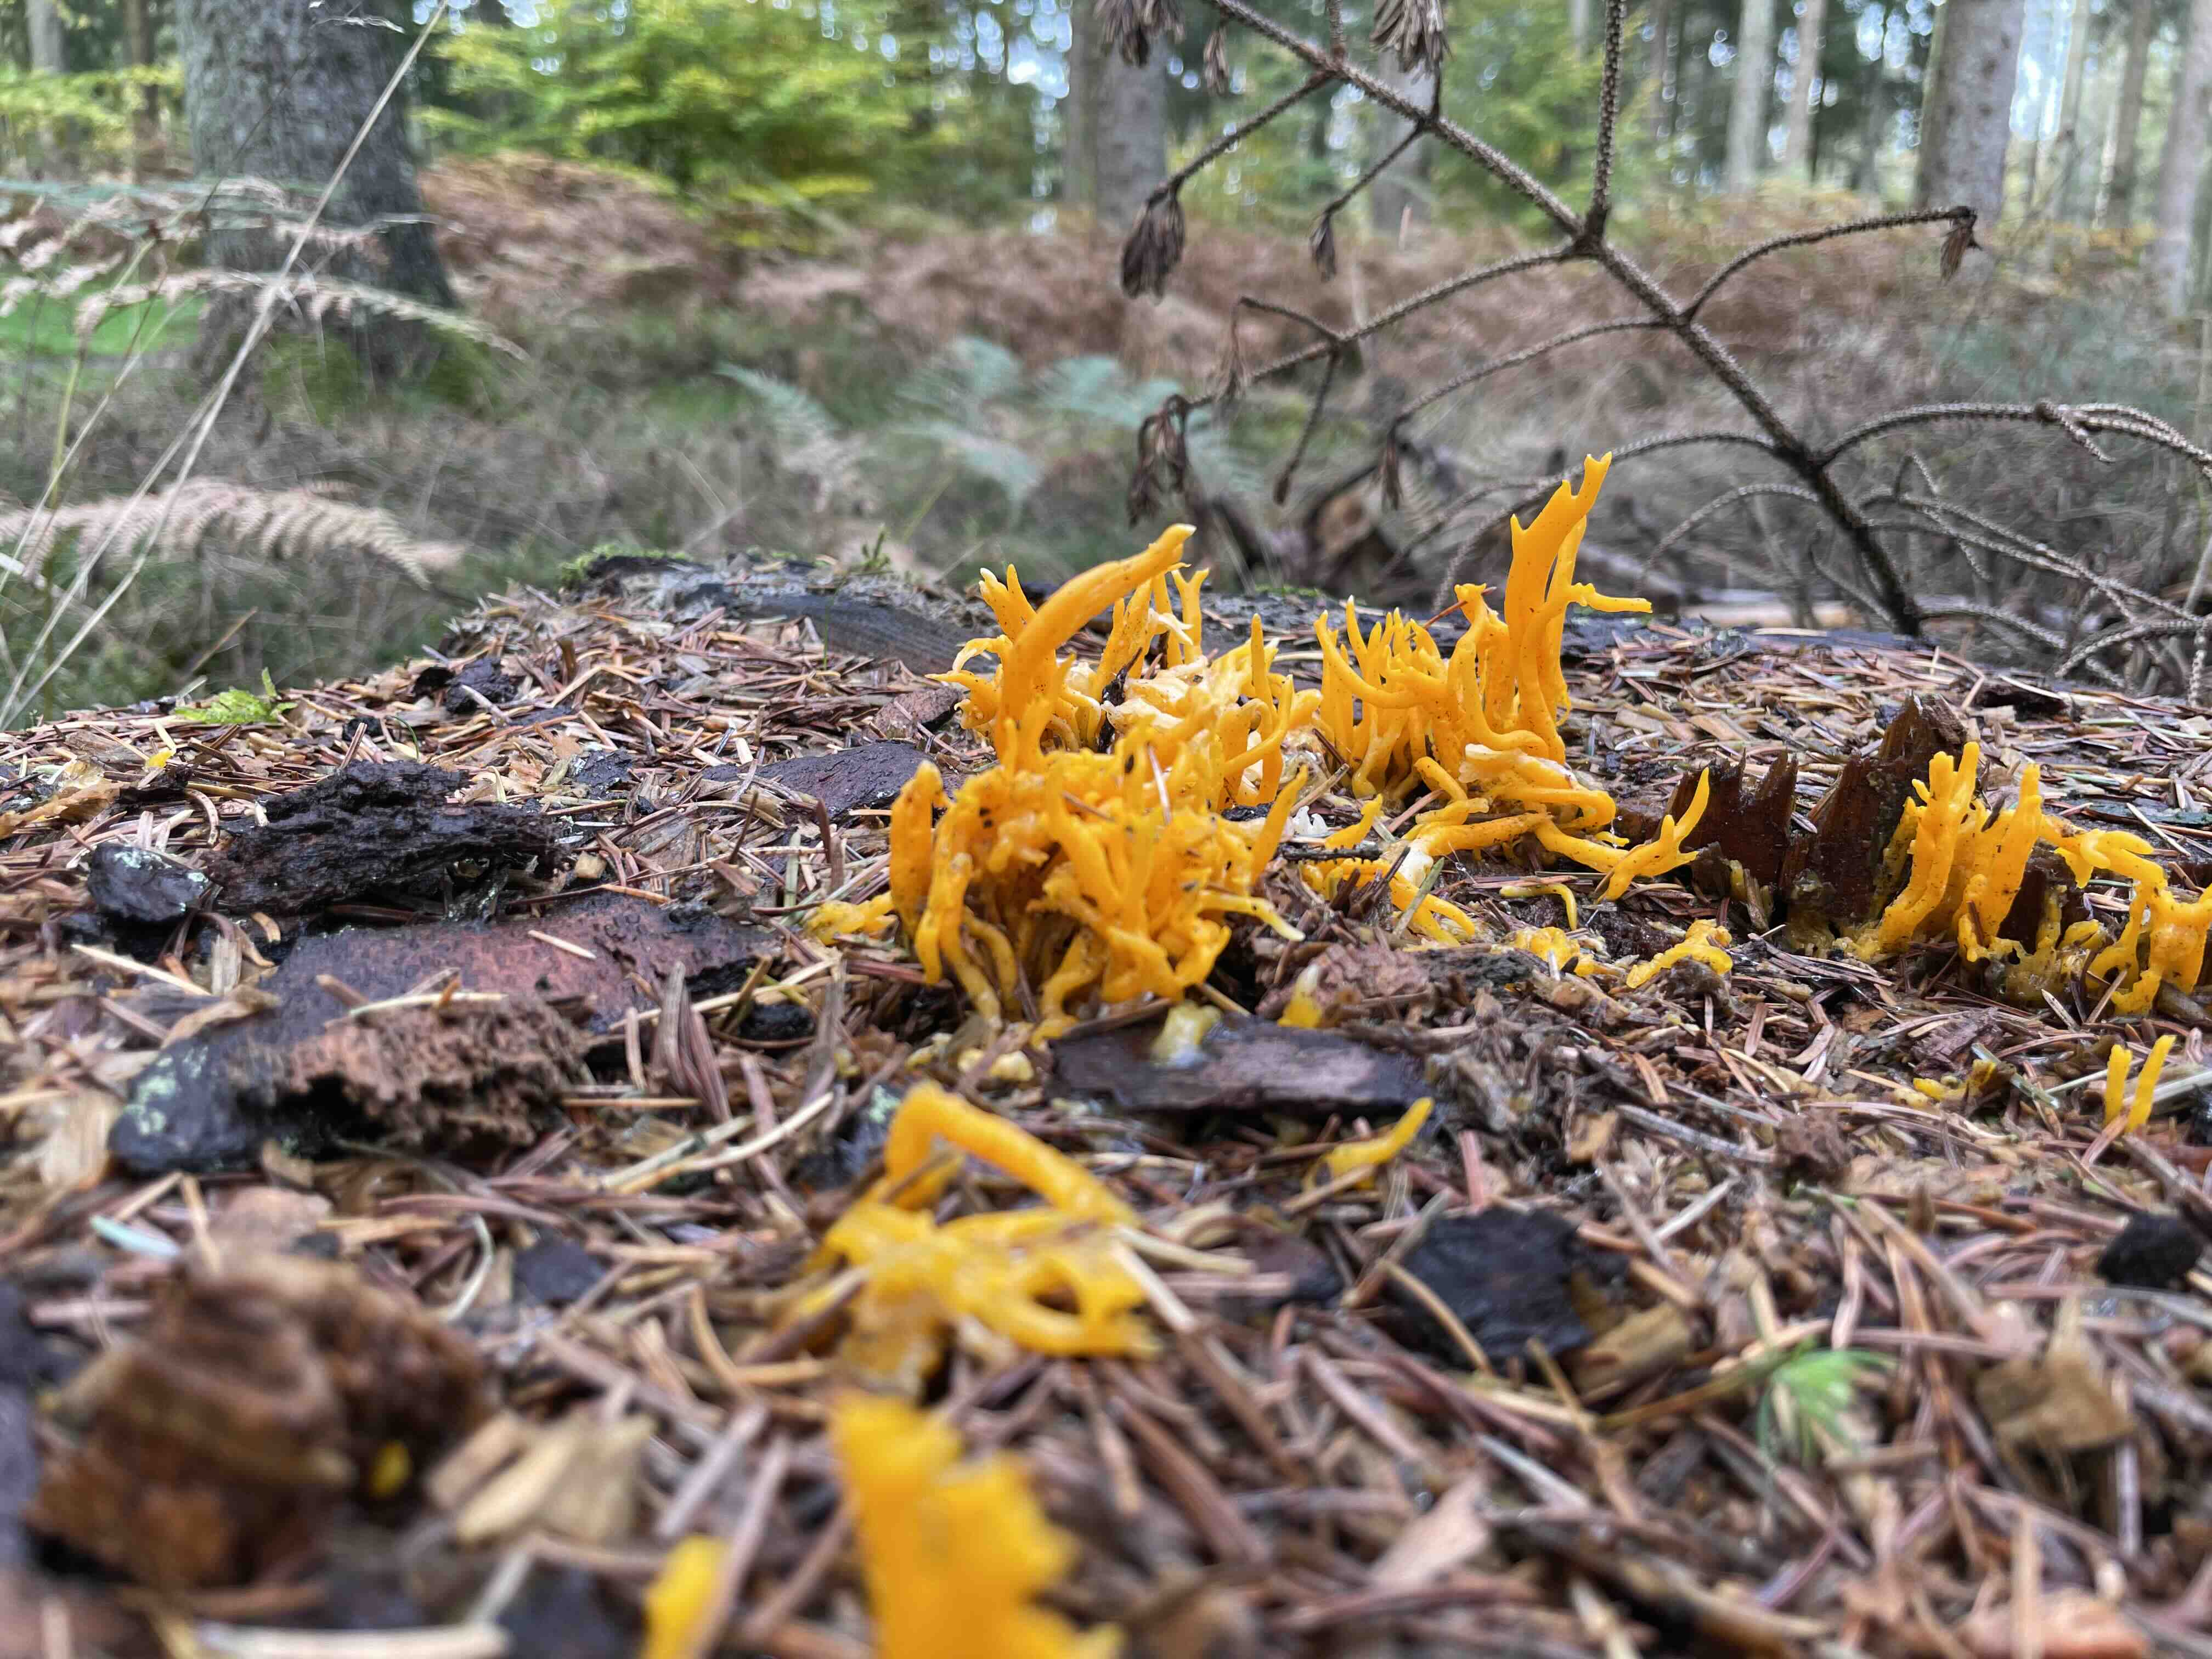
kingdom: Fungi
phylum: Basidiomycota
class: Dacrymycetes
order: Dacrymycetales
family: Dacrymycetaceae
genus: Calocera
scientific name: Calocera viscosa
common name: almindelig guldgaffel
